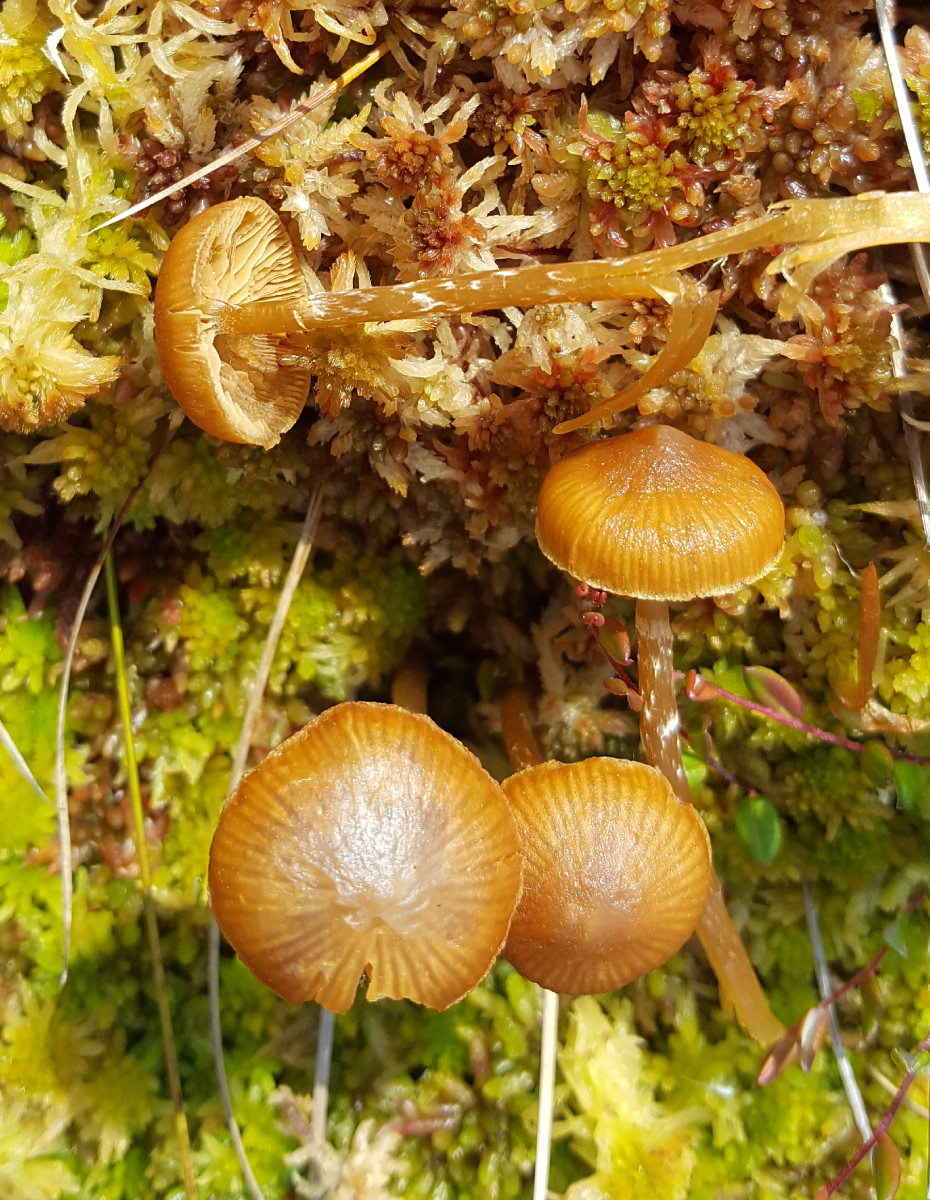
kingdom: Fungi
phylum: Basidiomycota
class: Agaricomycetes
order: Agaricales
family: Hymenogastraceae
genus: Galerina
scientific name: Galerina paludosa
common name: mose-hjelmhat
